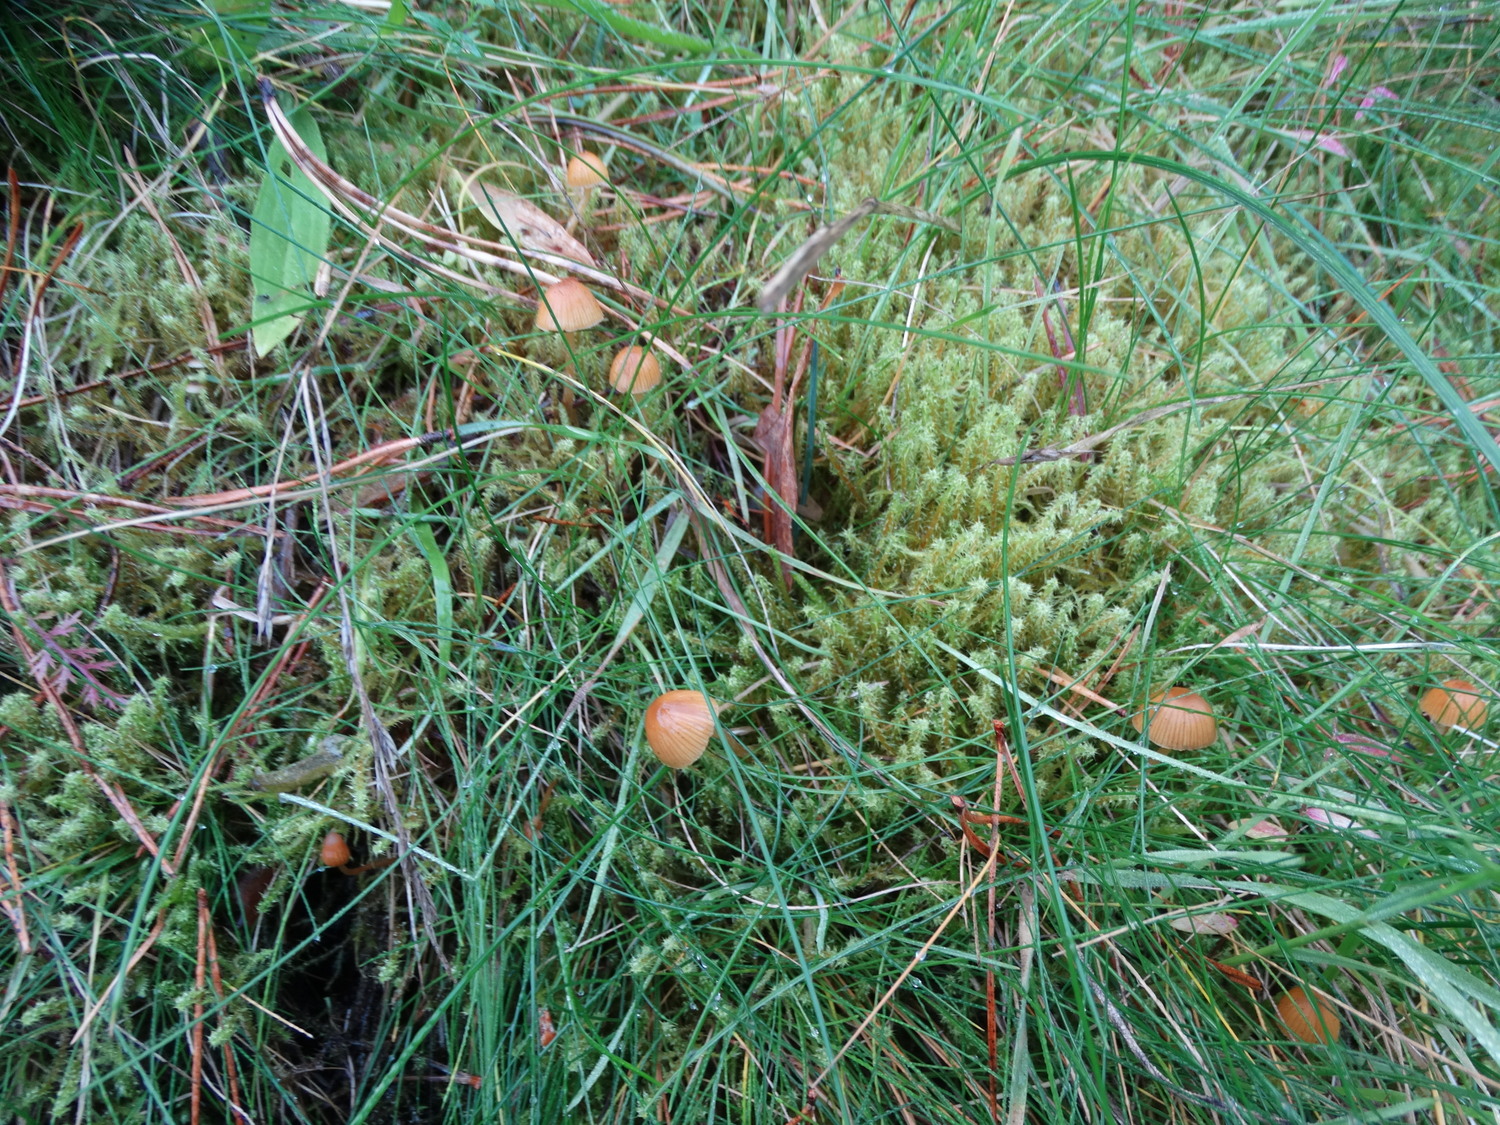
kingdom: Fungi
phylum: Basidiomycota
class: Agaricomycetes
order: Agaricales
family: Hymenogastraceae
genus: Galerina
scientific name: Galerina
